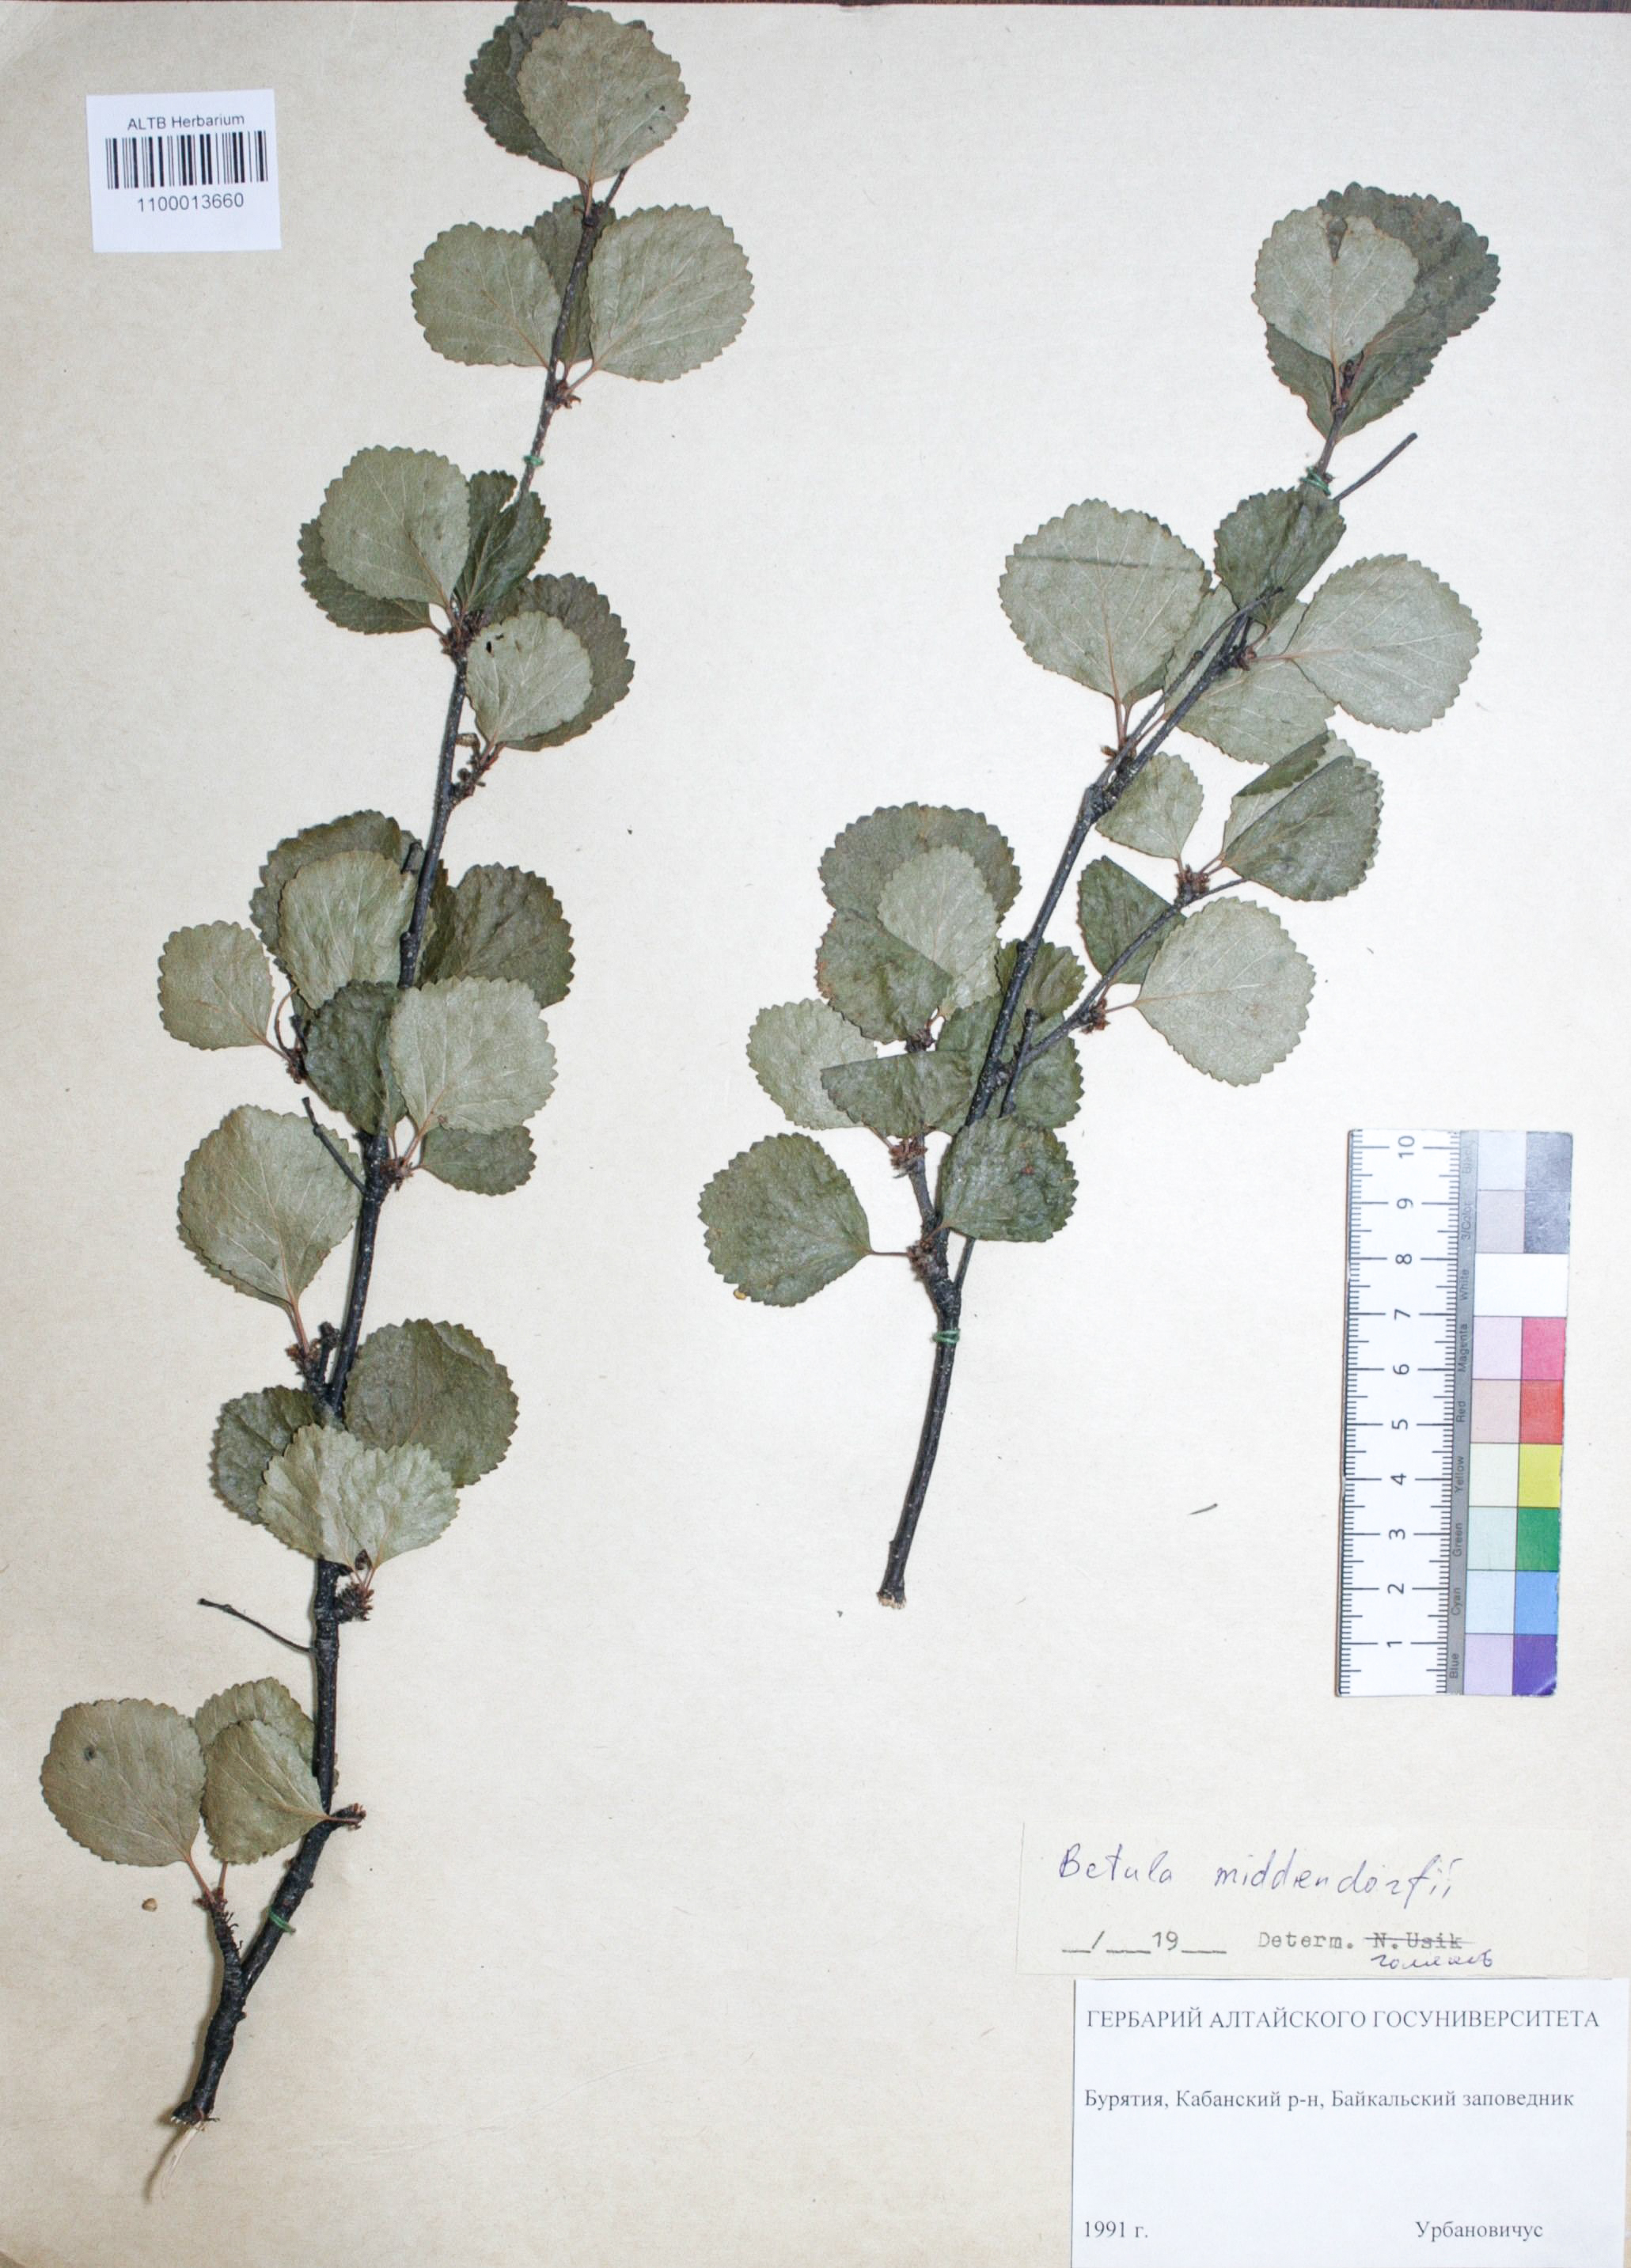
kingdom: Plantae
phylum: Tracheophyta
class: Magnoliopsida
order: Fagales
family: Betulaceae
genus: Betula
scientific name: Betula fruticosa
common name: Japanese bog birch
